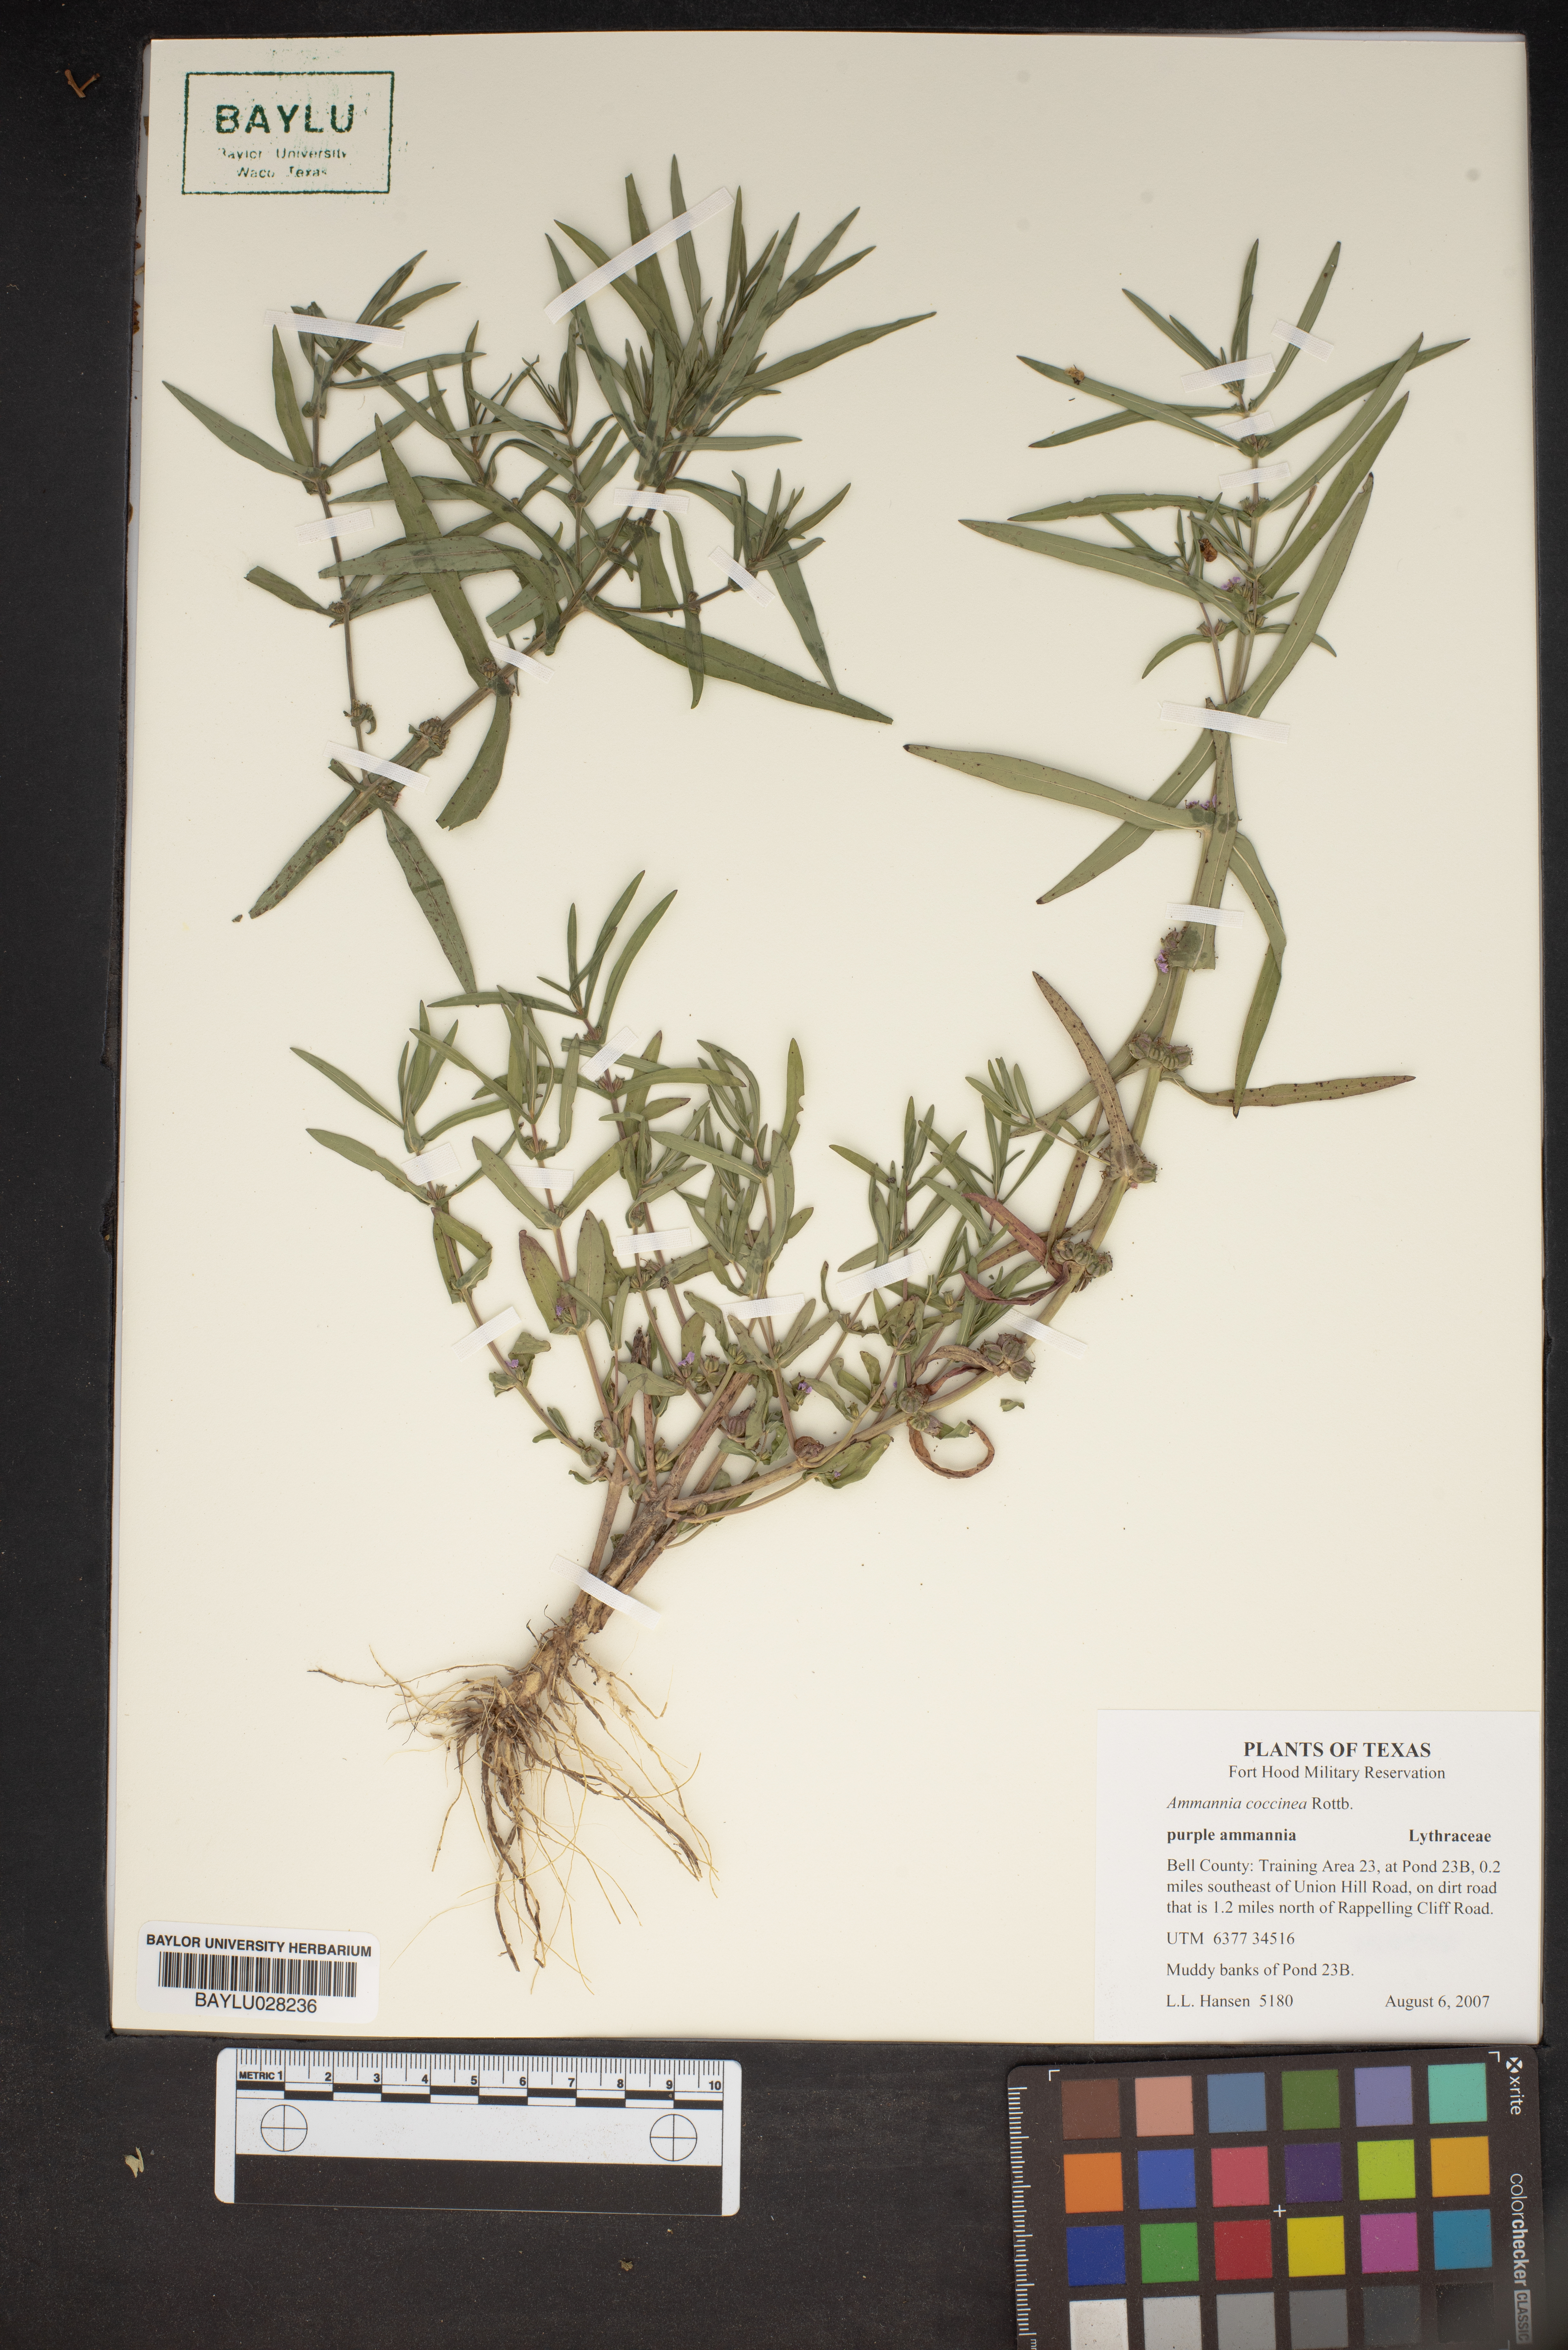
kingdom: Plantae
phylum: Tracheophyta
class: Magnoliopsida
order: Myrtales
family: Lythraceae
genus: Ammannia
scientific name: Ammannia coccinea
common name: Valley redstem
